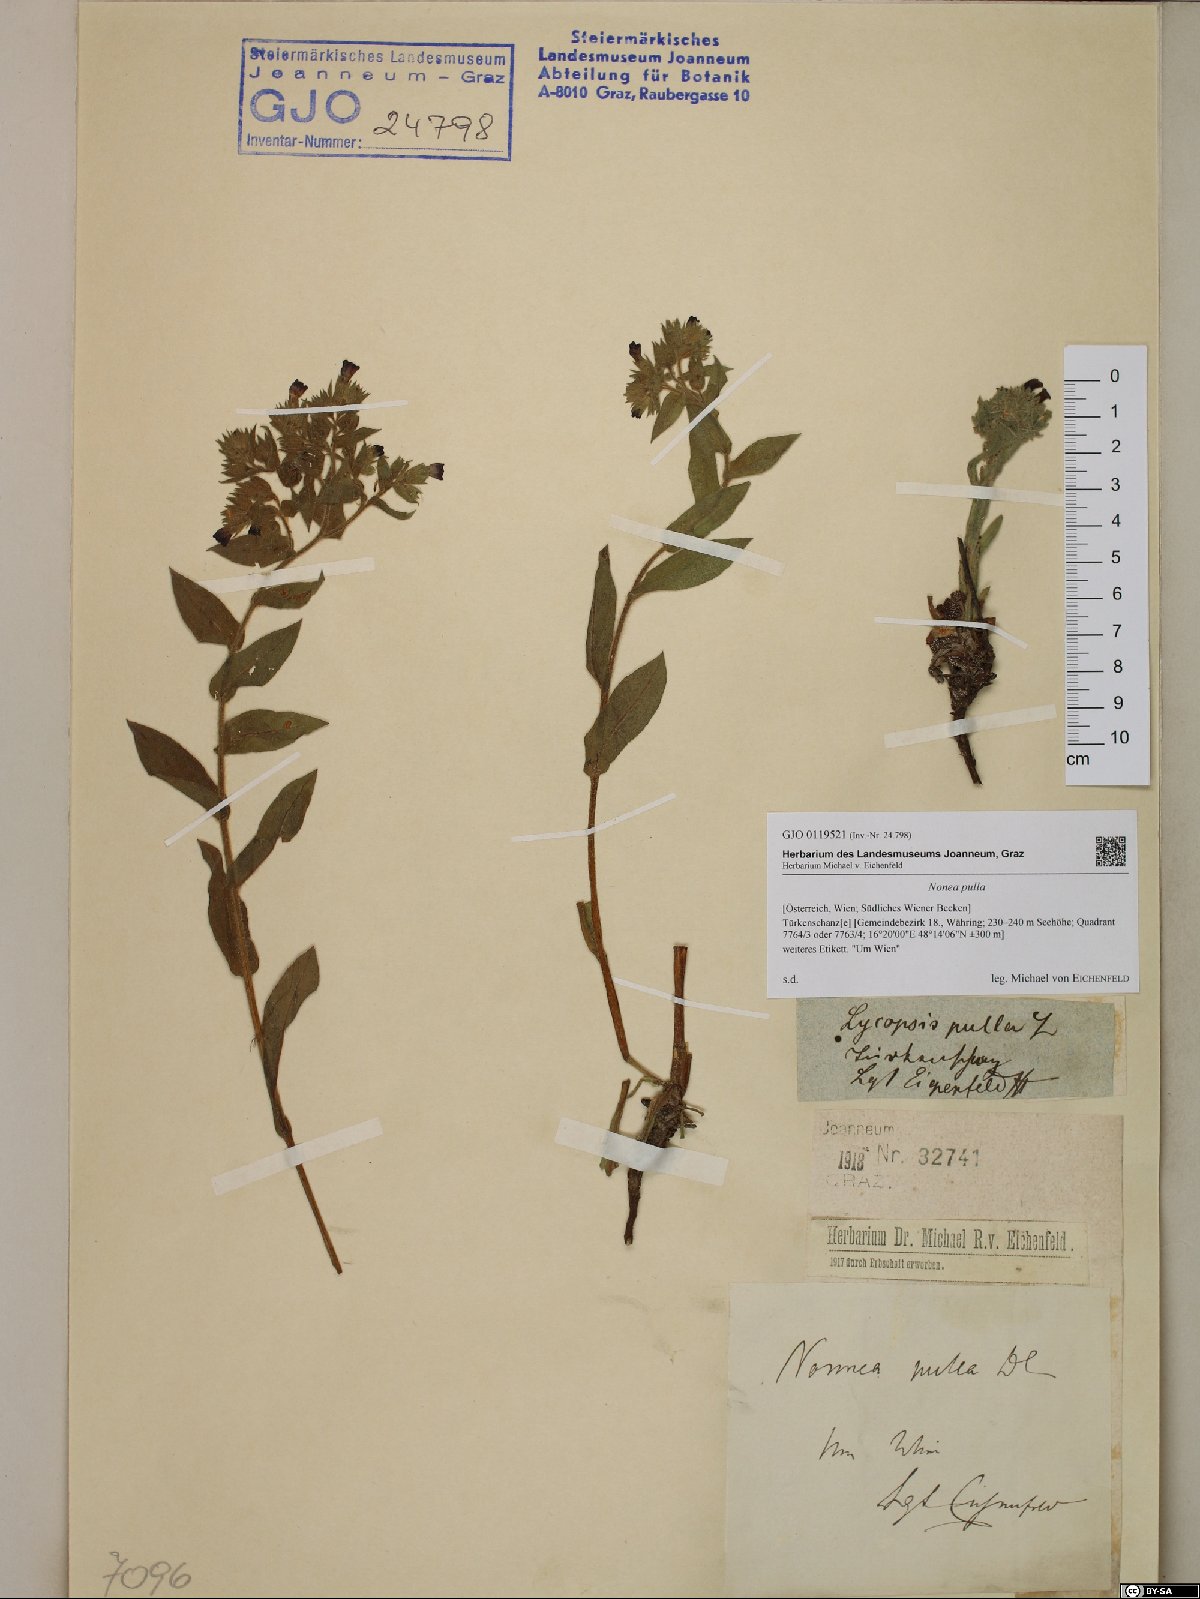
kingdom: Plantae
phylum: Tracheophyta
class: Magnoliopsida
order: Boraginales
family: Boraginaceae
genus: Nonea
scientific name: Nonea pulla
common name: Brown nonea
